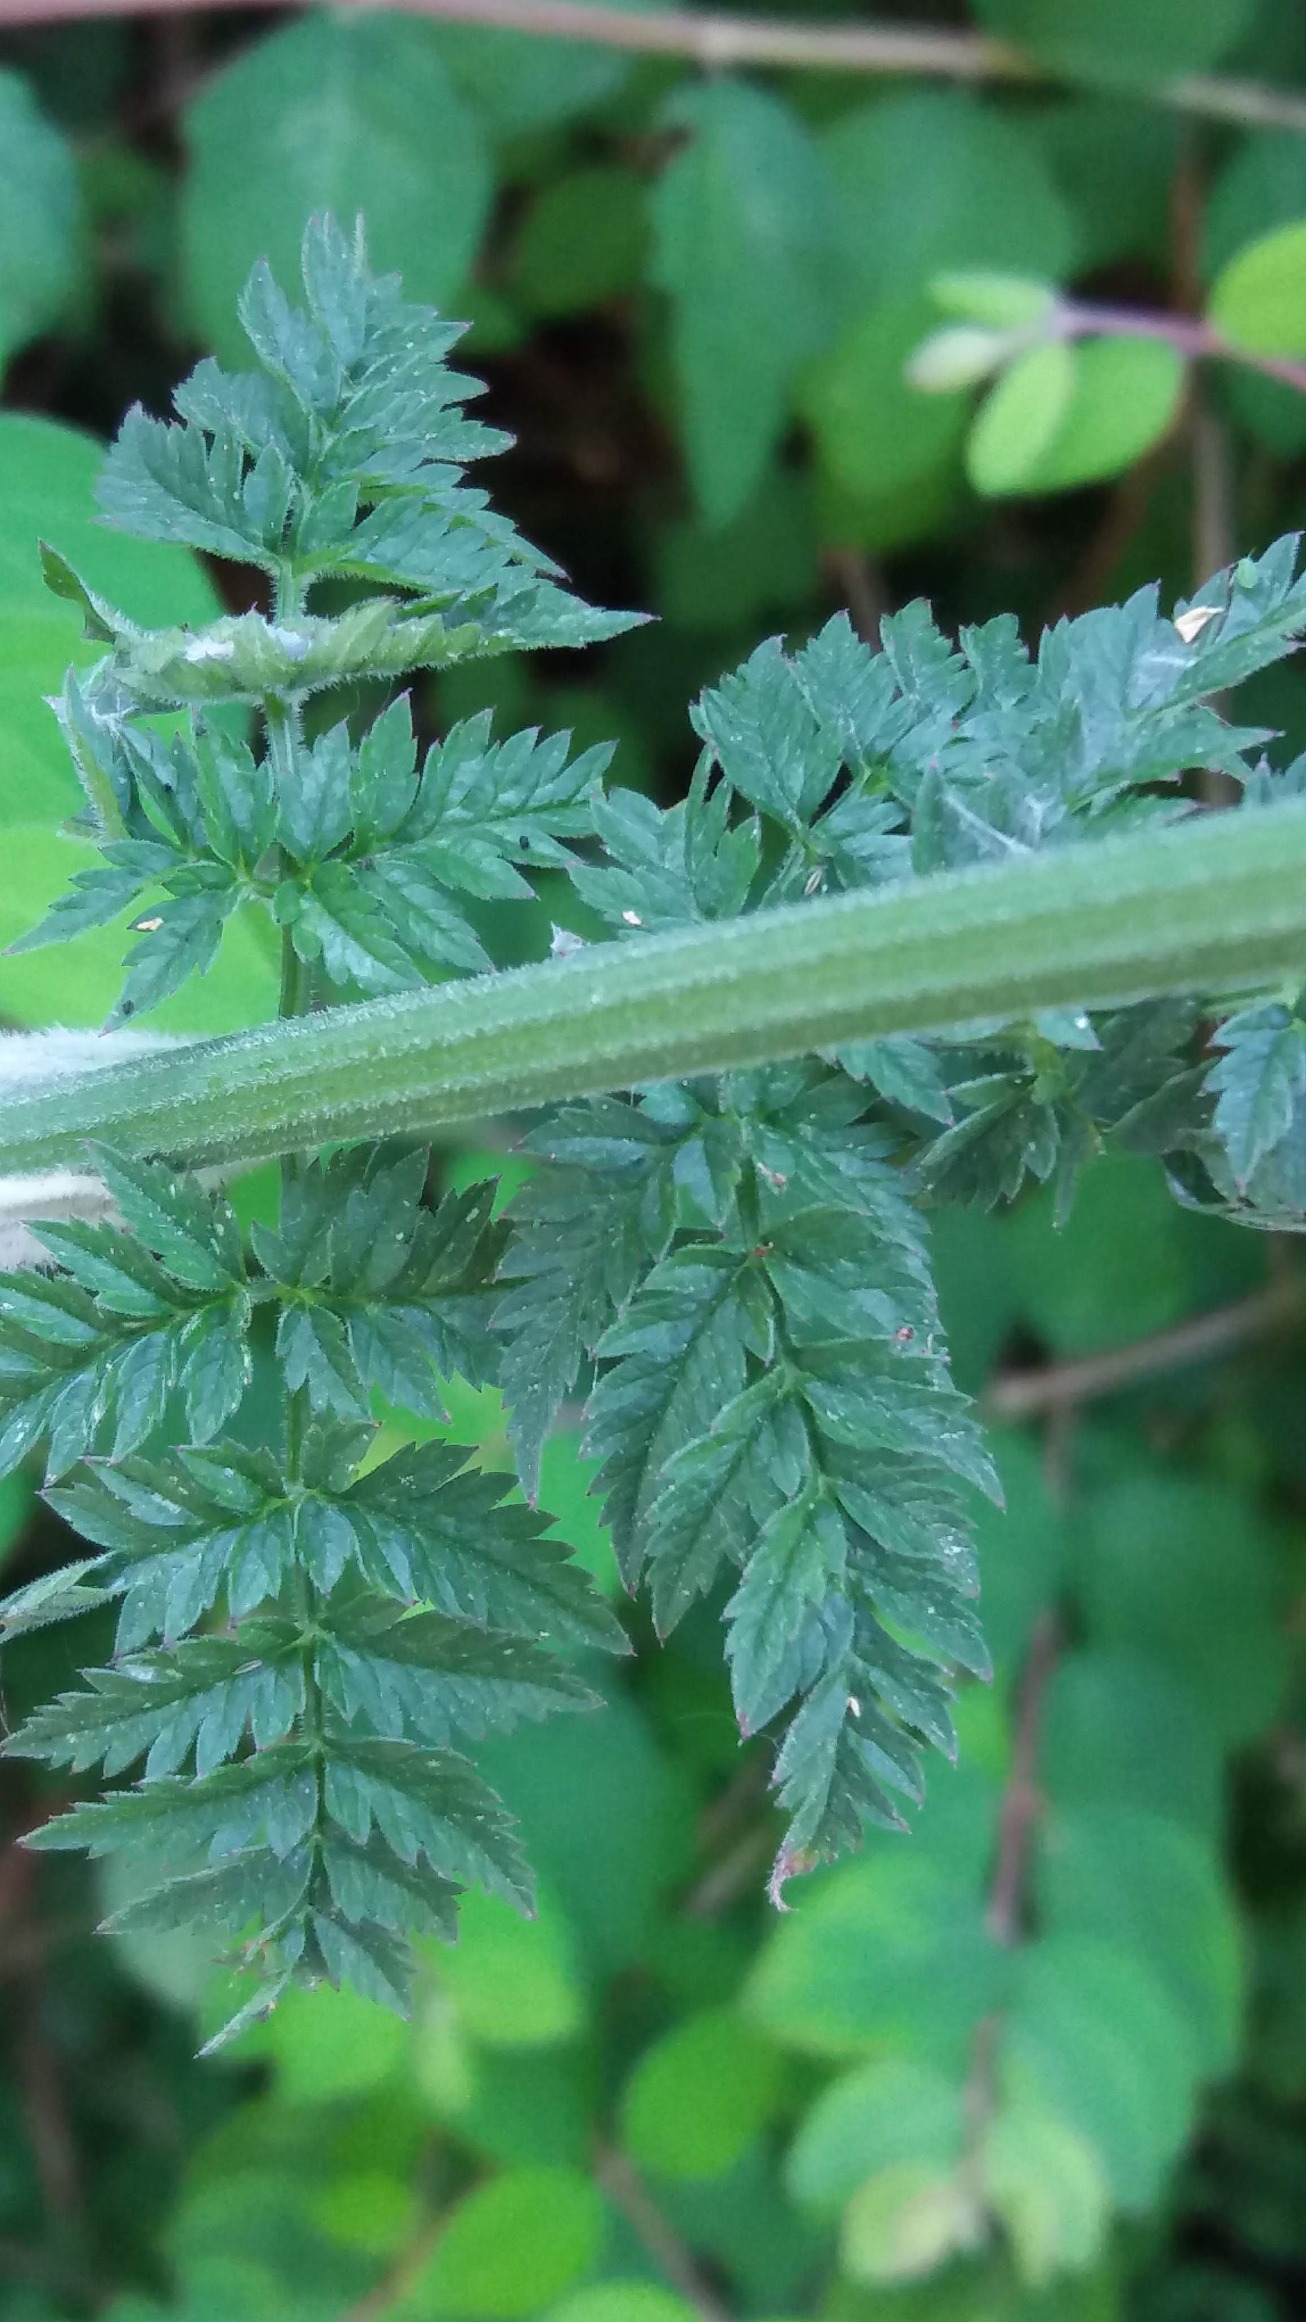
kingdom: Plantae
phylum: Tracheophyta
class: Magnoliopsida
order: Apiales
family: Apiaceae
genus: Anthriscus
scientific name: Anthriscus sylvestris
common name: Vild kørvel
